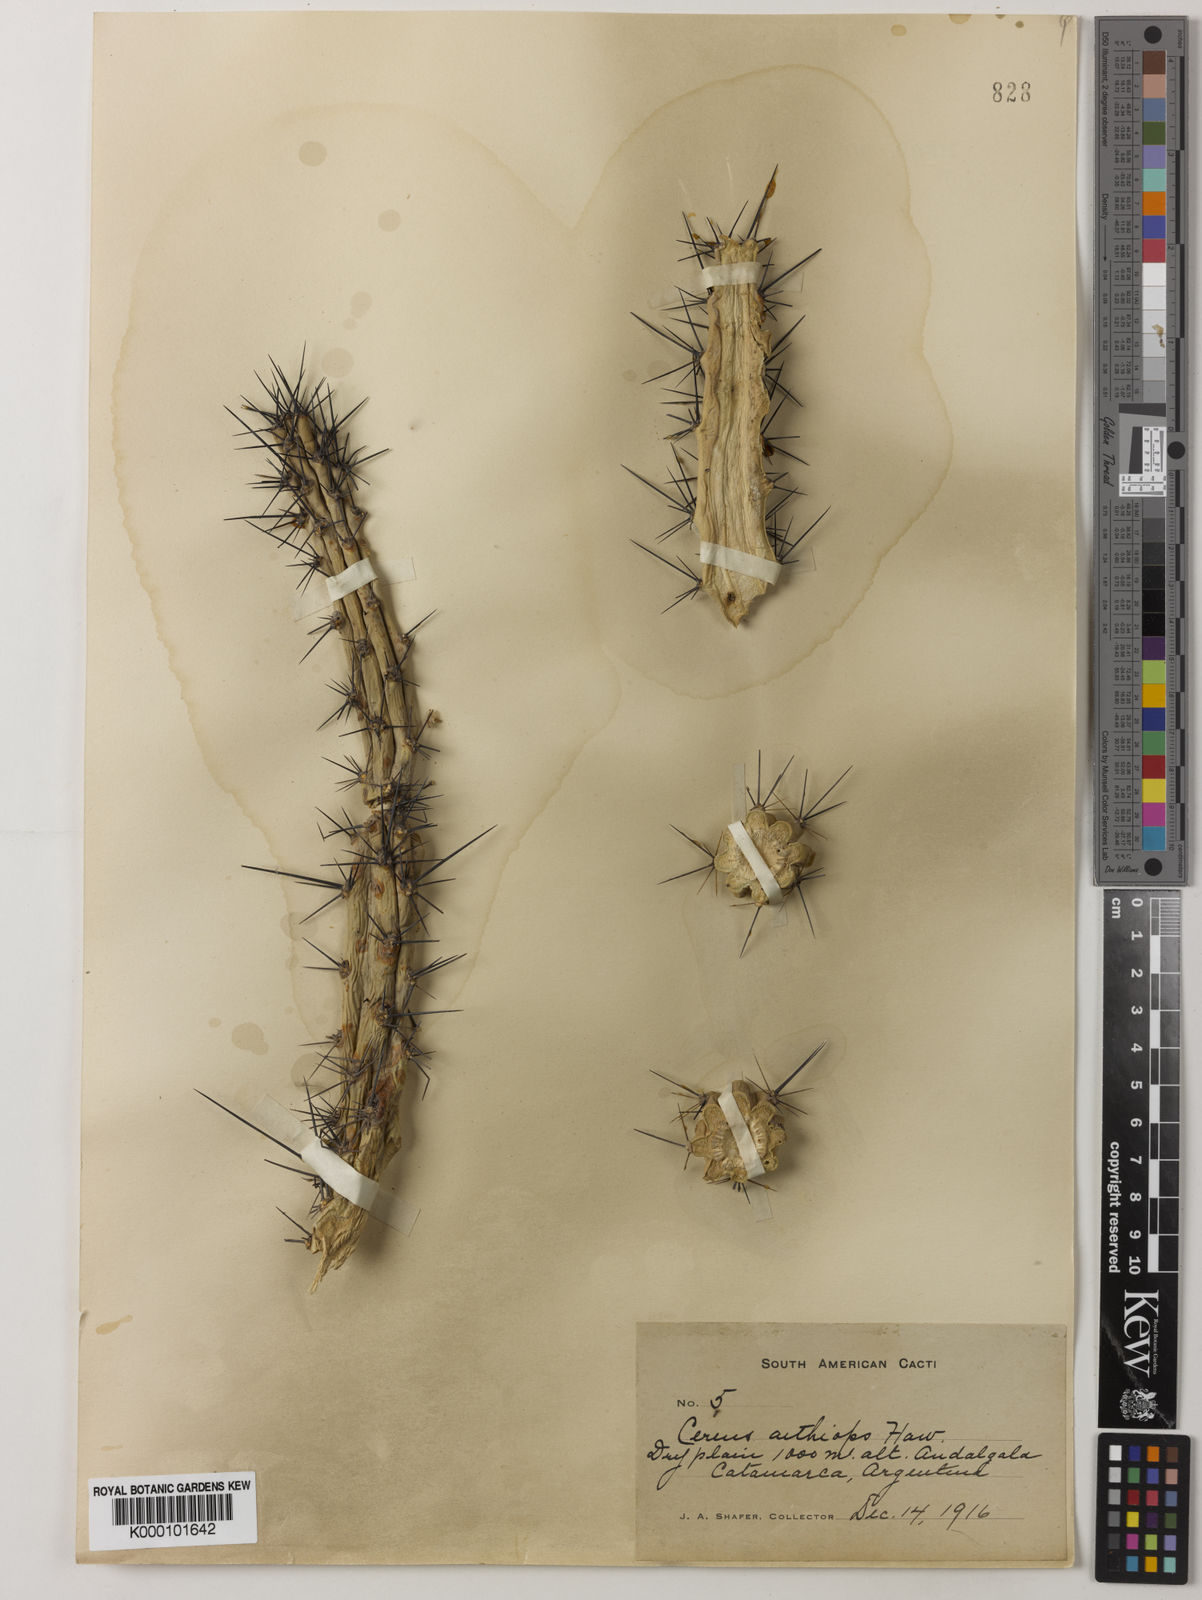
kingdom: Plantae
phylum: Tracheophyta
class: Magnoliopsida
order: Caryophyllales
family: Cactaceae
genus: Cereus
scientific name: Cereus aethiops
